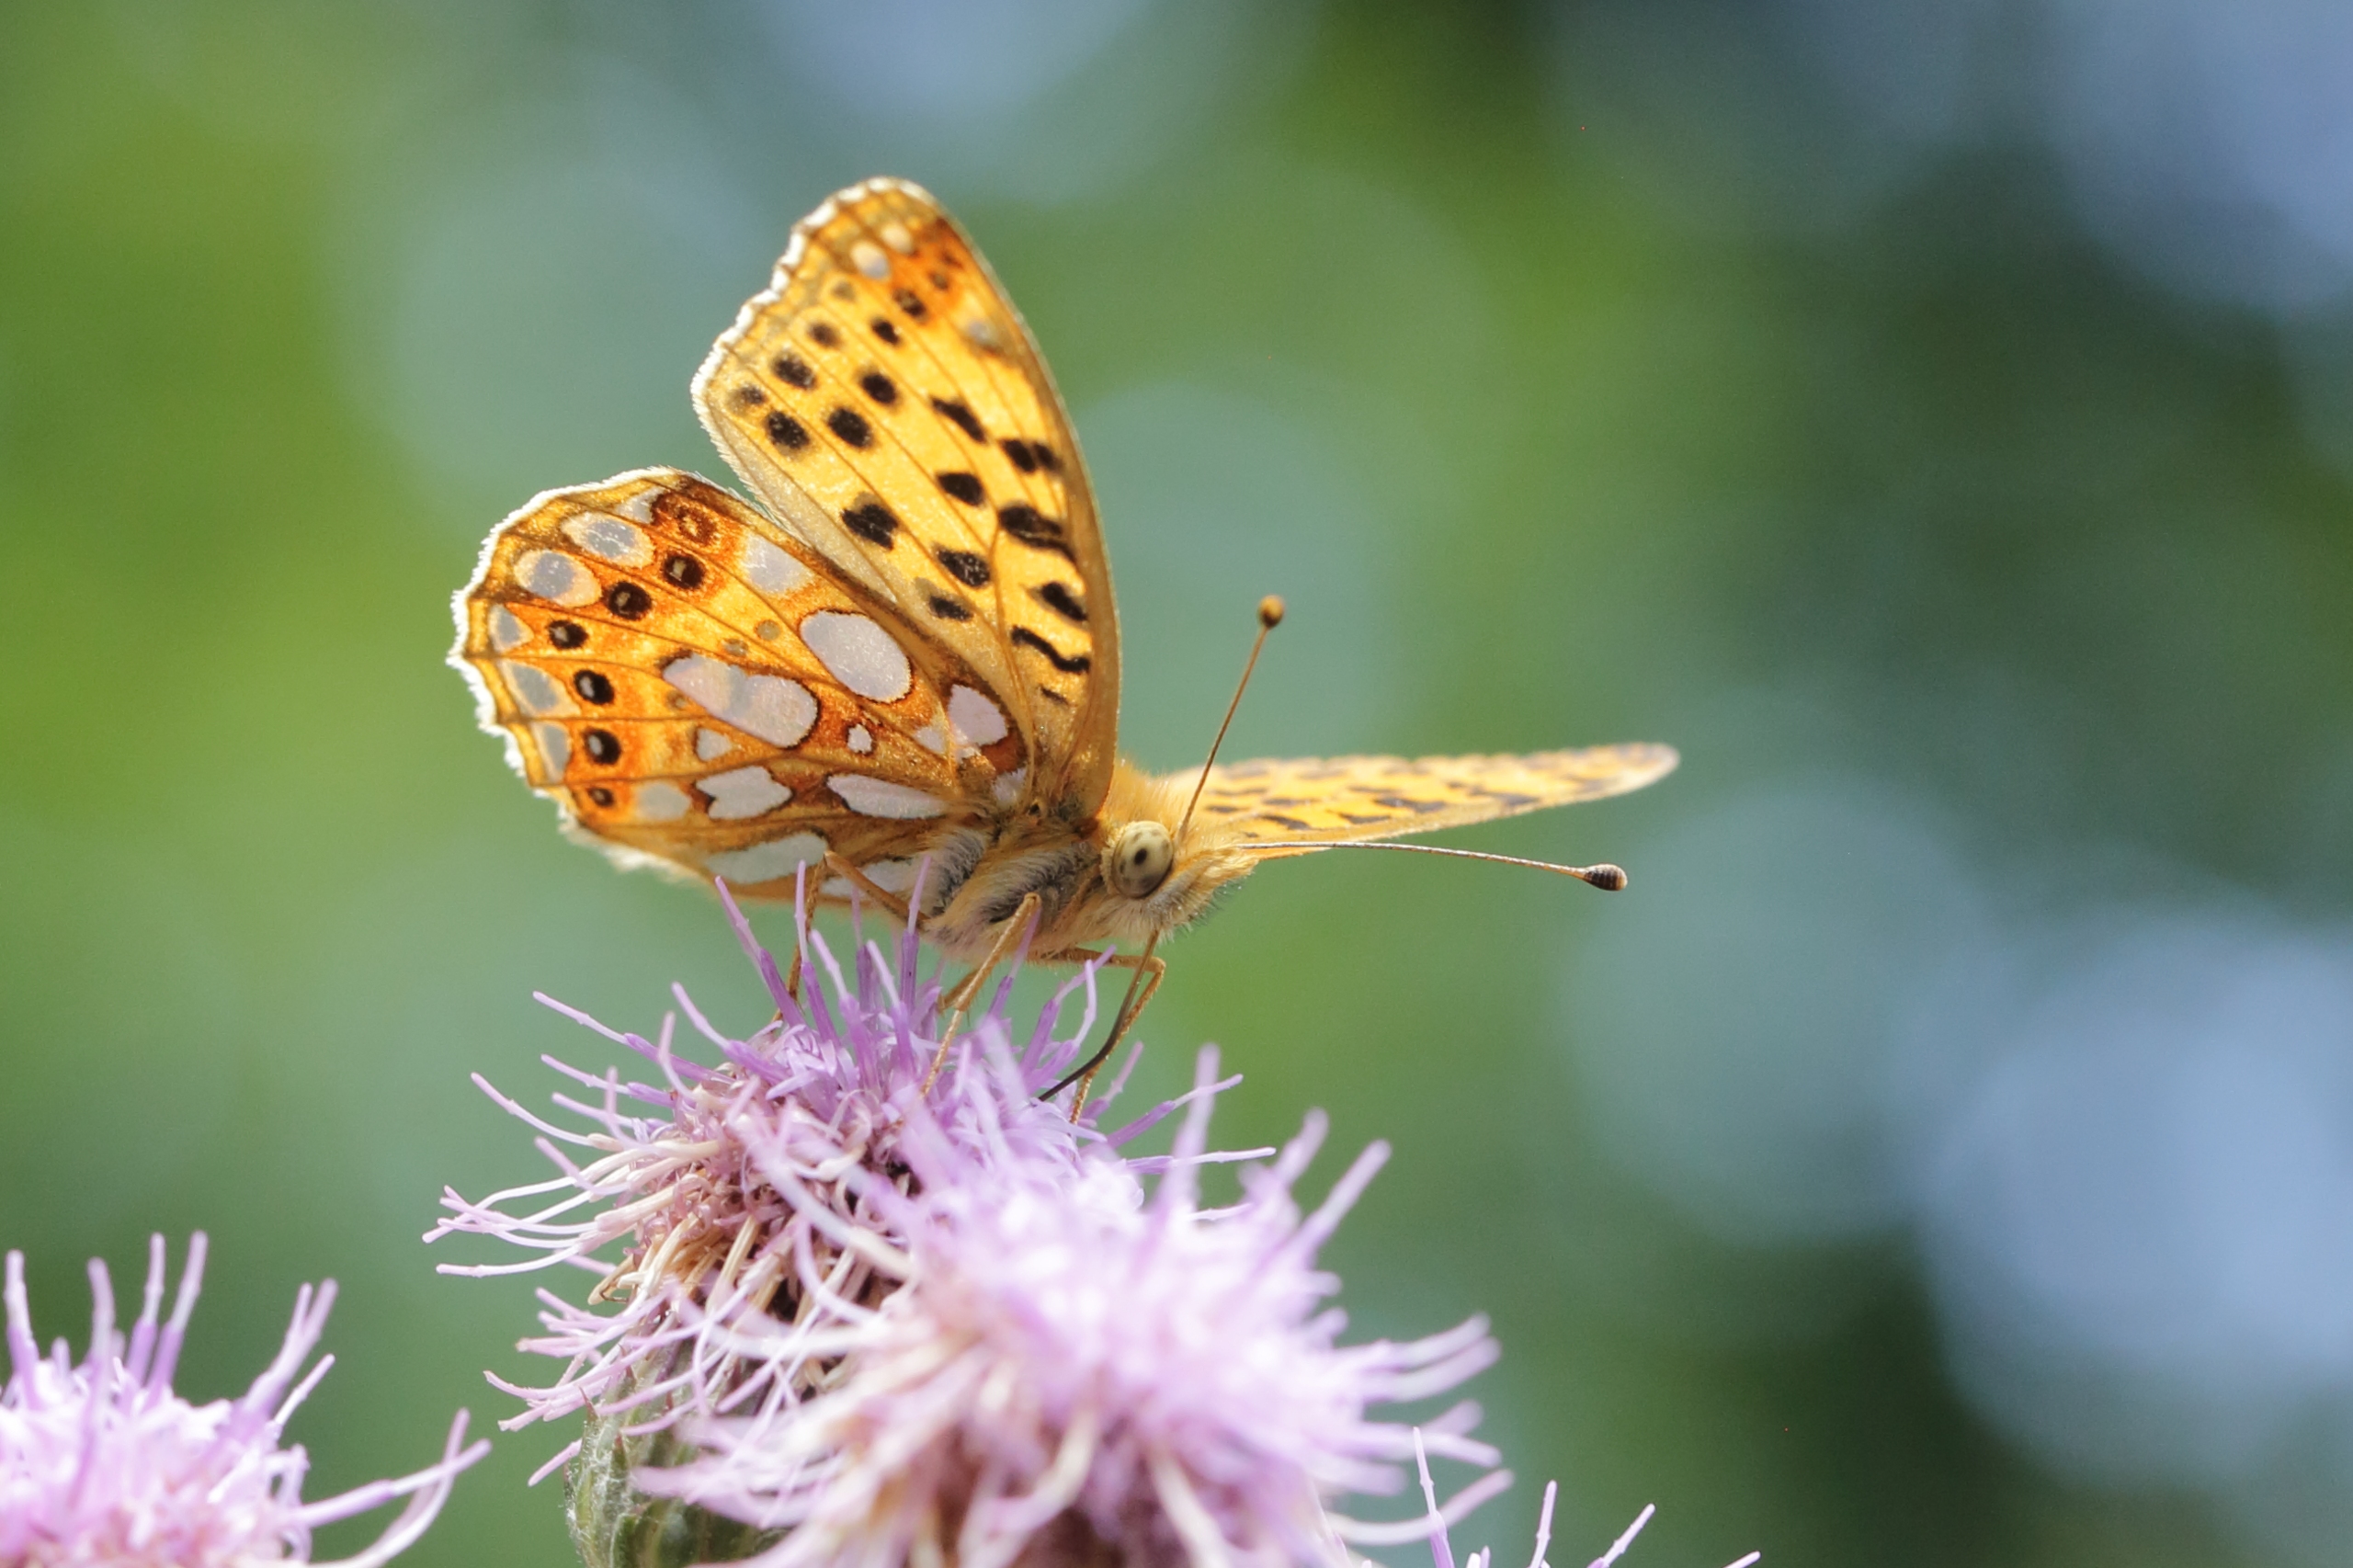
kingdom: Animalia
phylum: Arthropoda
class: Insecta
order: Lepidoptera
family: Nymphalidae
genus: Issoria
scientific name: Issoria lathonia
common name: Storplettet perlemorsommerfugl
